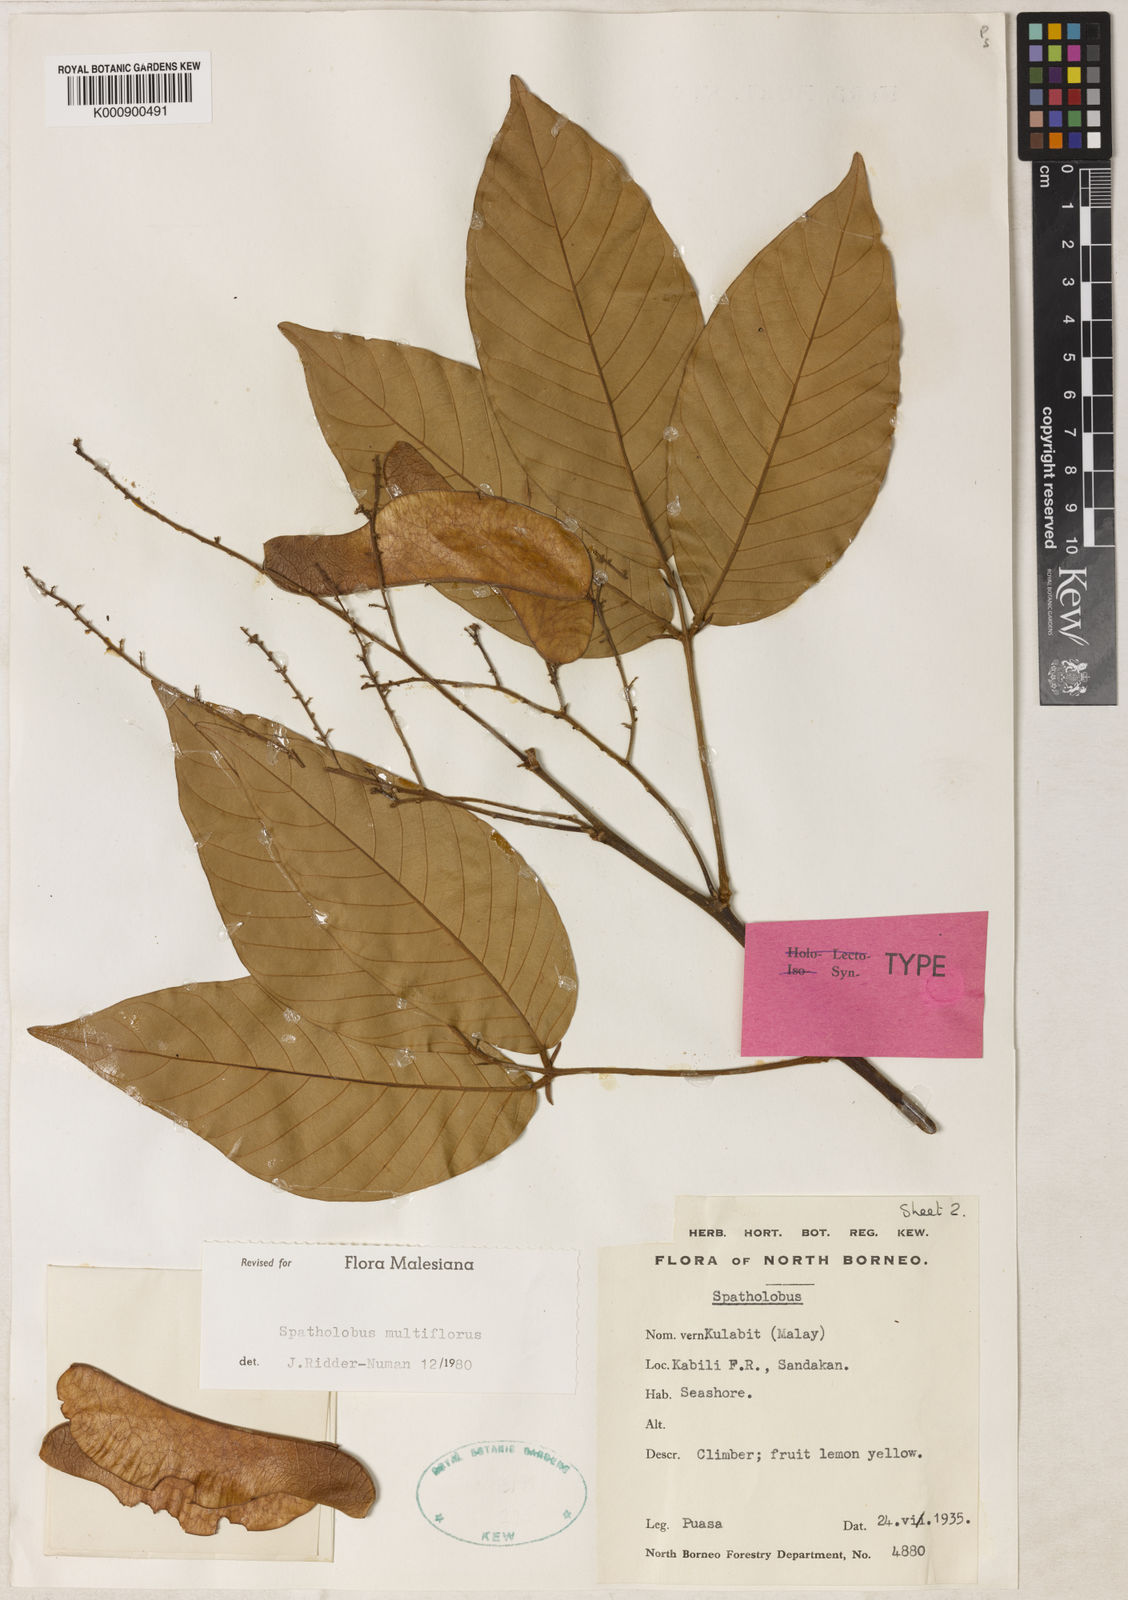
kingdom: Plantae
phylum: Tracheophyta
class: Magnoliopsida
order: Fabales
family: Fabaceae
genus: Spatholobus
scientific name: Spatholobus multiflorus
